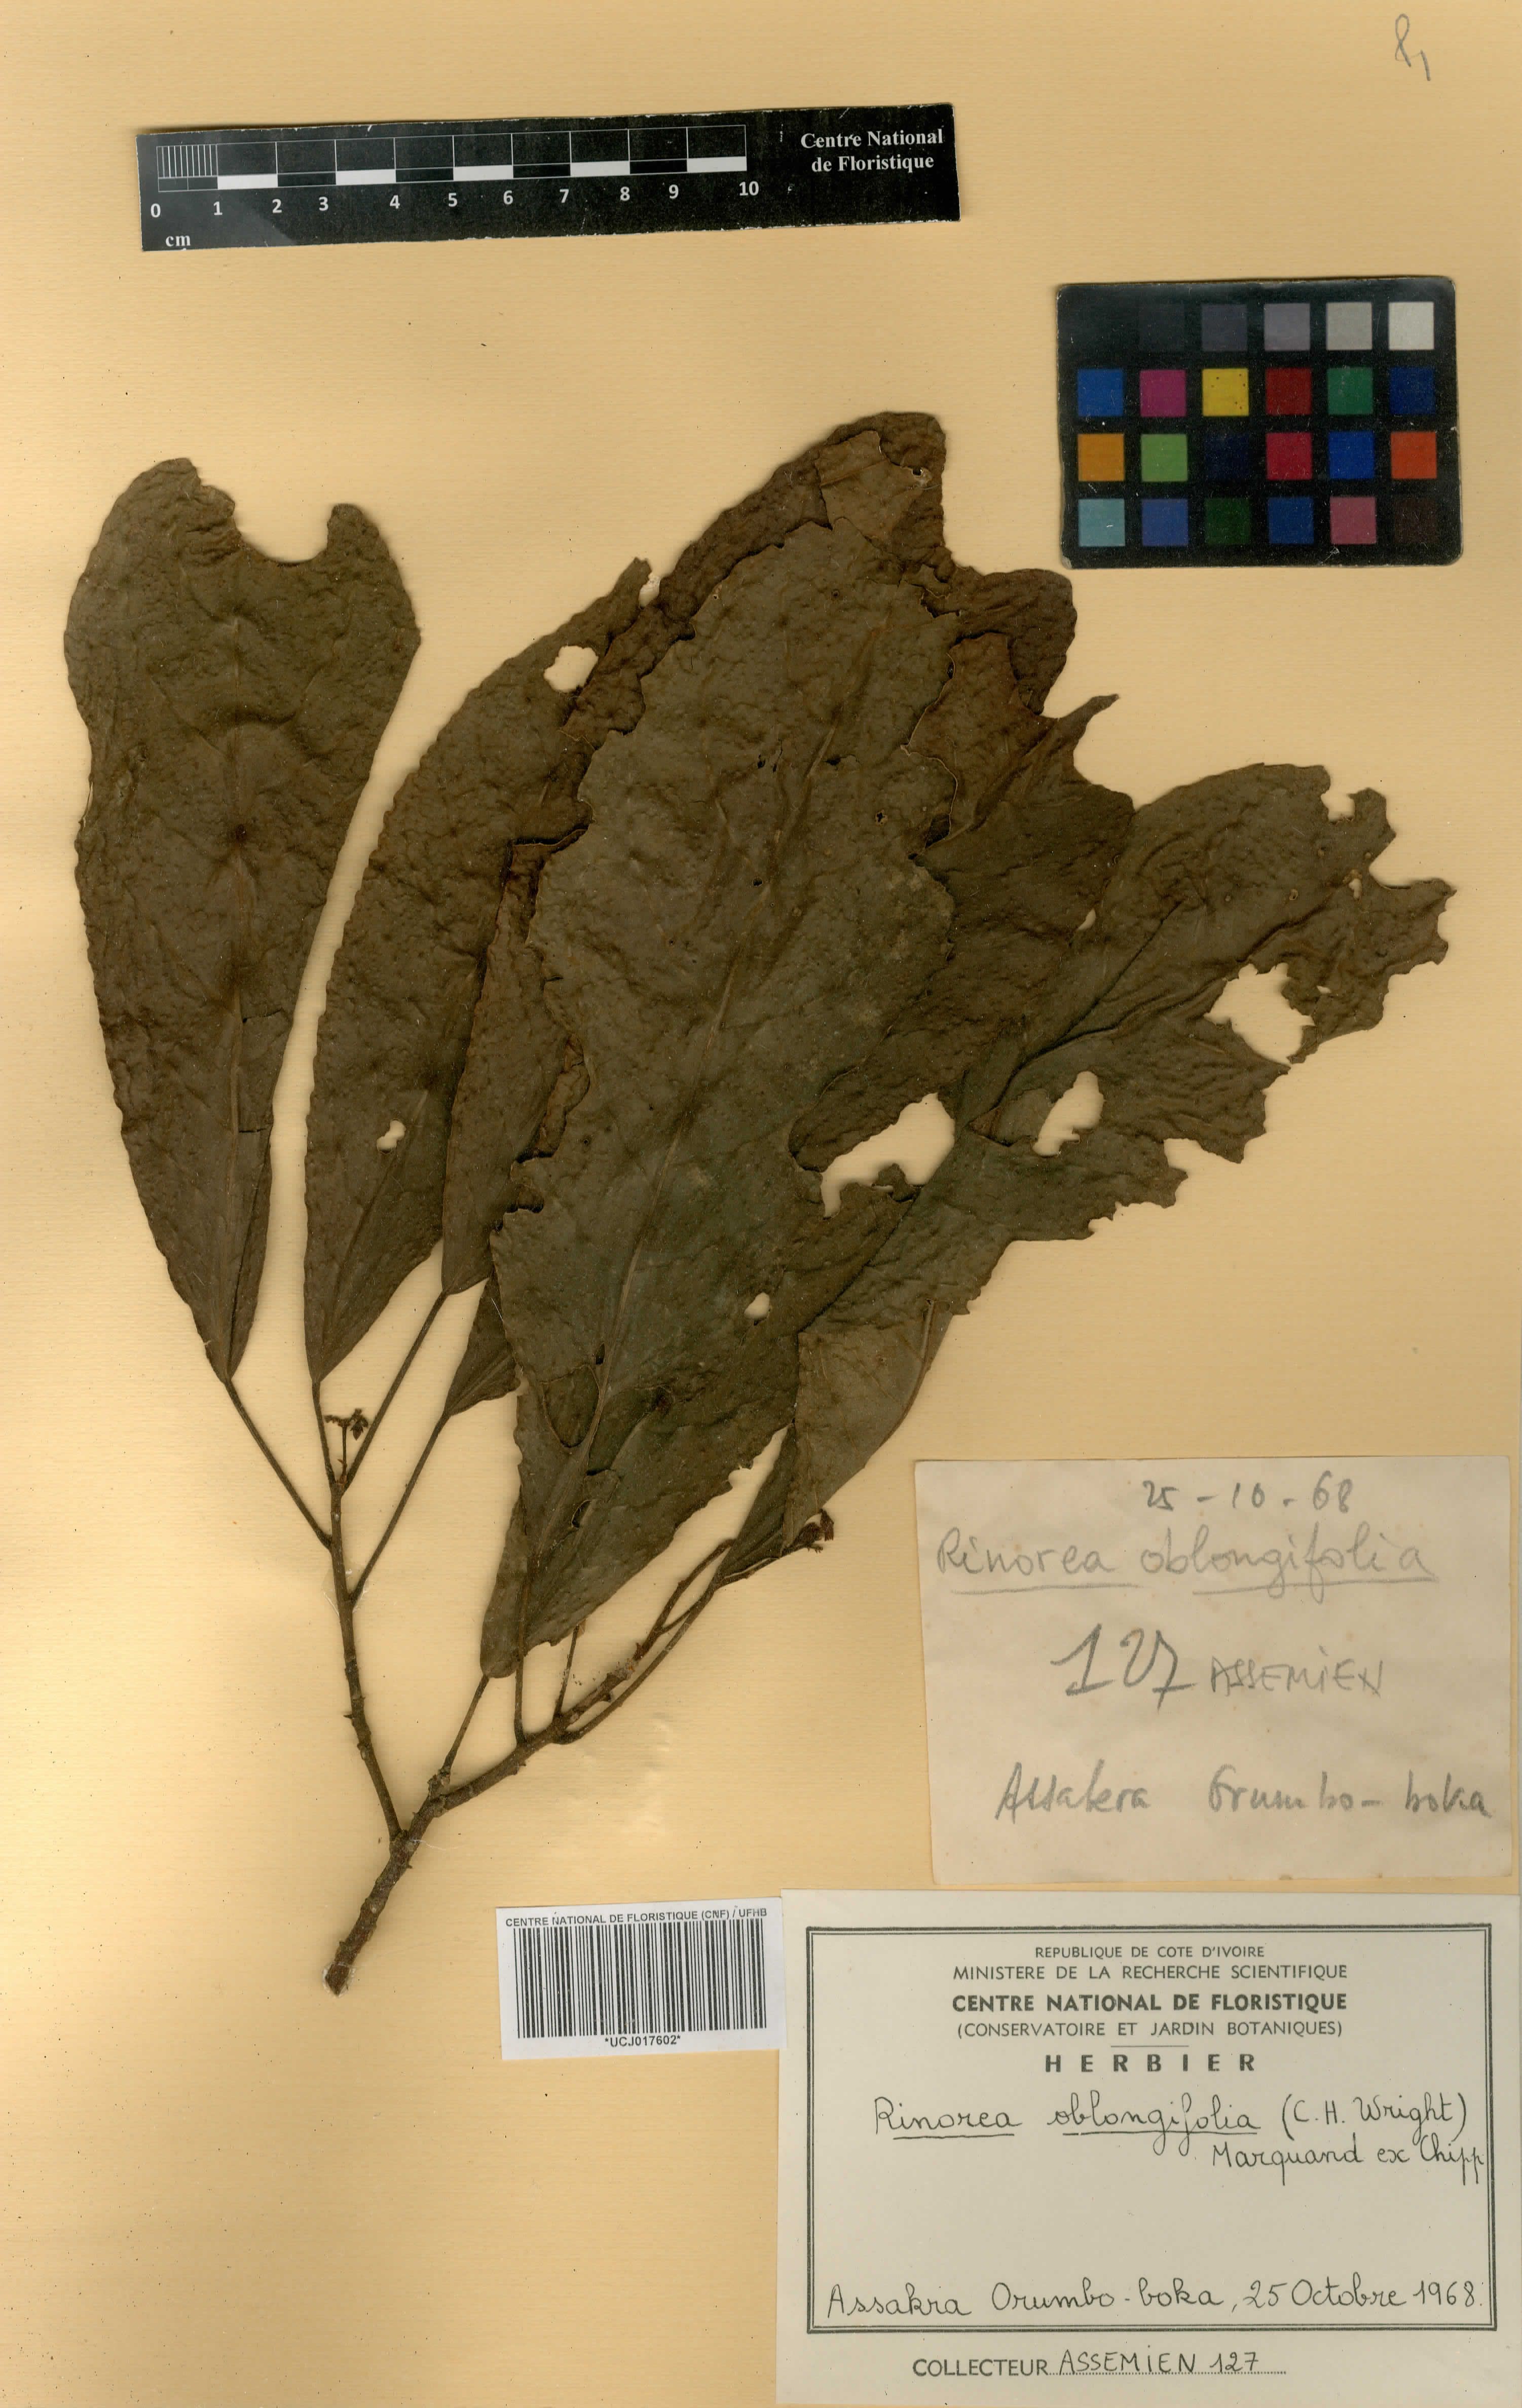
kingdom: Plantae
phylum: Tracheophyta
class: Magnoliopsida
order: Apiales
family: Pittosporaceae
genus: Marianthus
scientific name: Marianthus coeruleopunctatus
